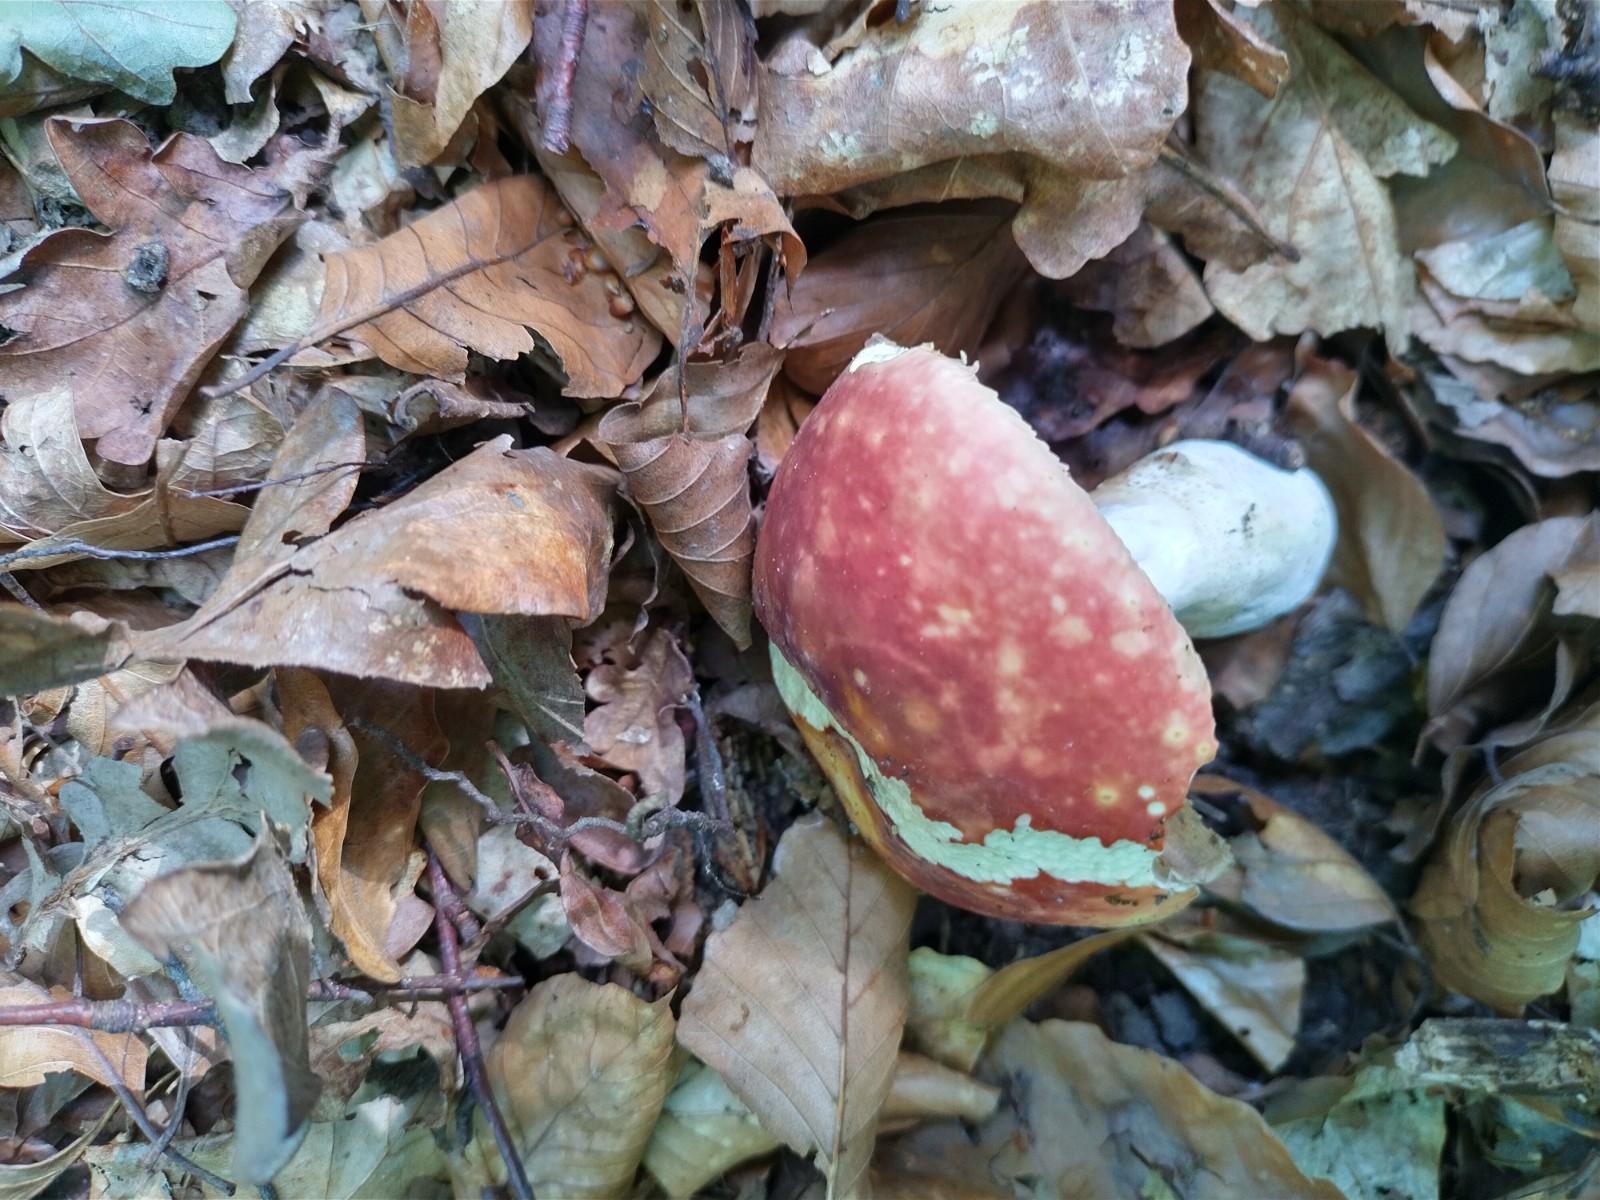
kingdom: Fungi
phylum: Basidiomycota
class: Agaricomycetes
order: Russulales
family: Russulaceae
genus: Russula
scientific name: Russula rosea
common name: fastkødet skørhat
